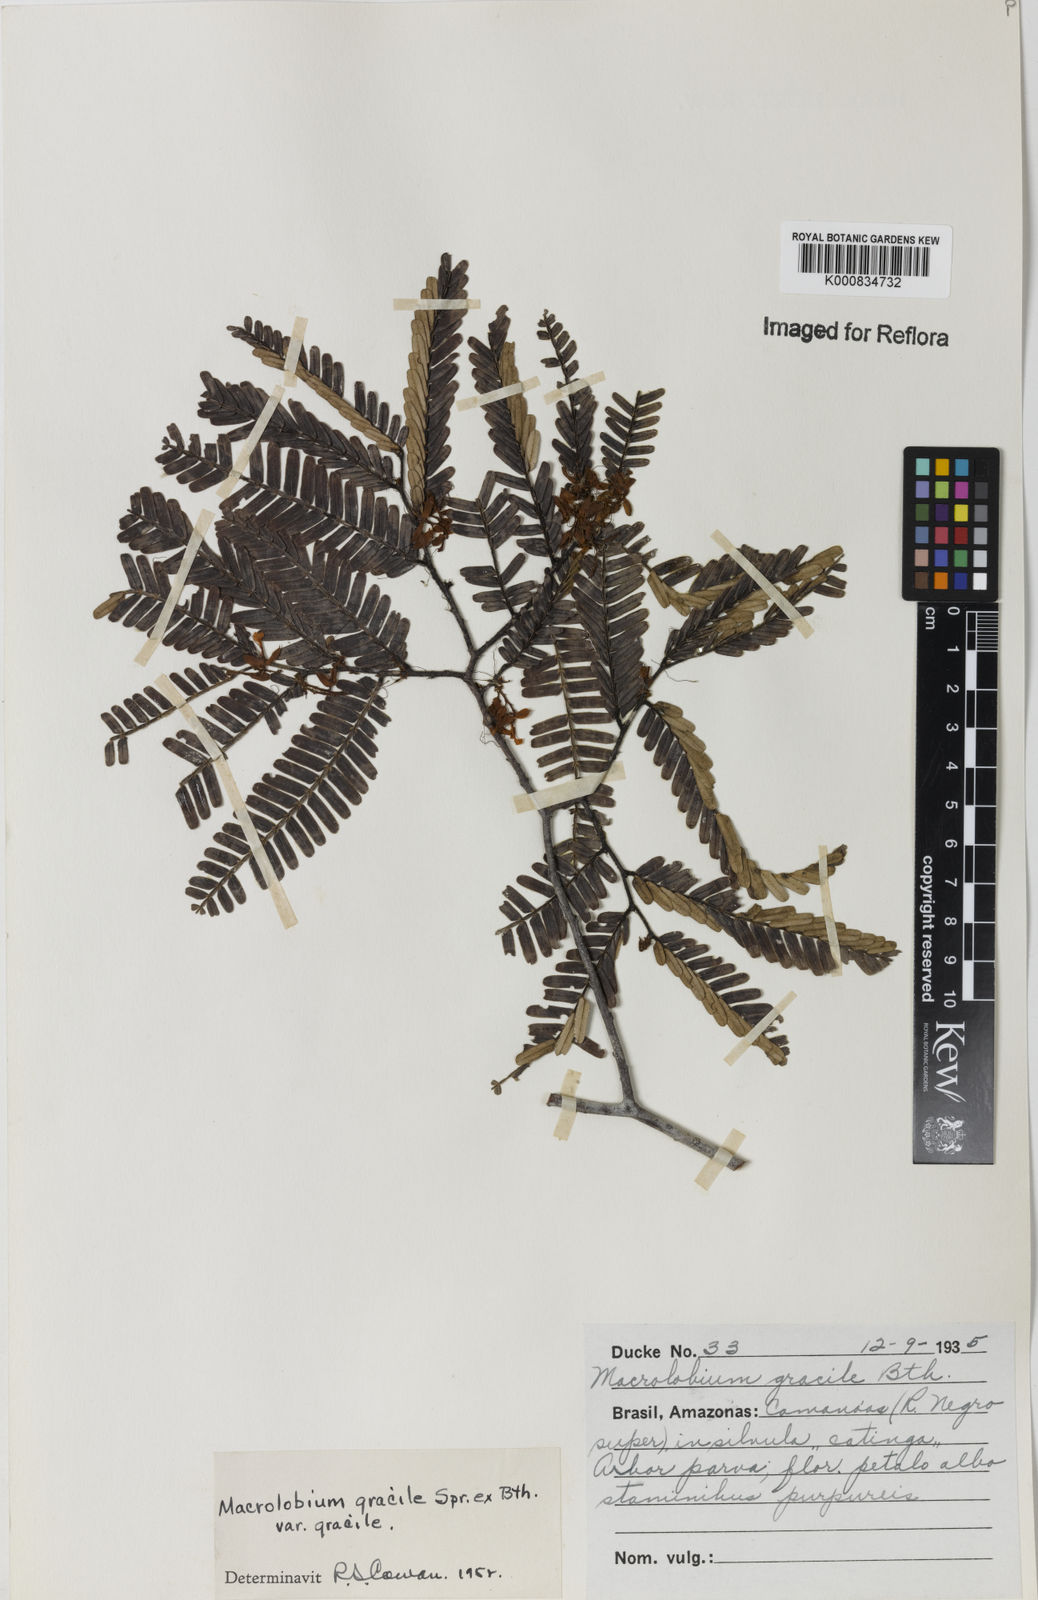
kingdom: Plantae
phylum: Tracheophyta
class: Magnoliopsida
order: Fabales
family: Fabaceae
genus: Macrolobium
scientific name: Macrolobium
